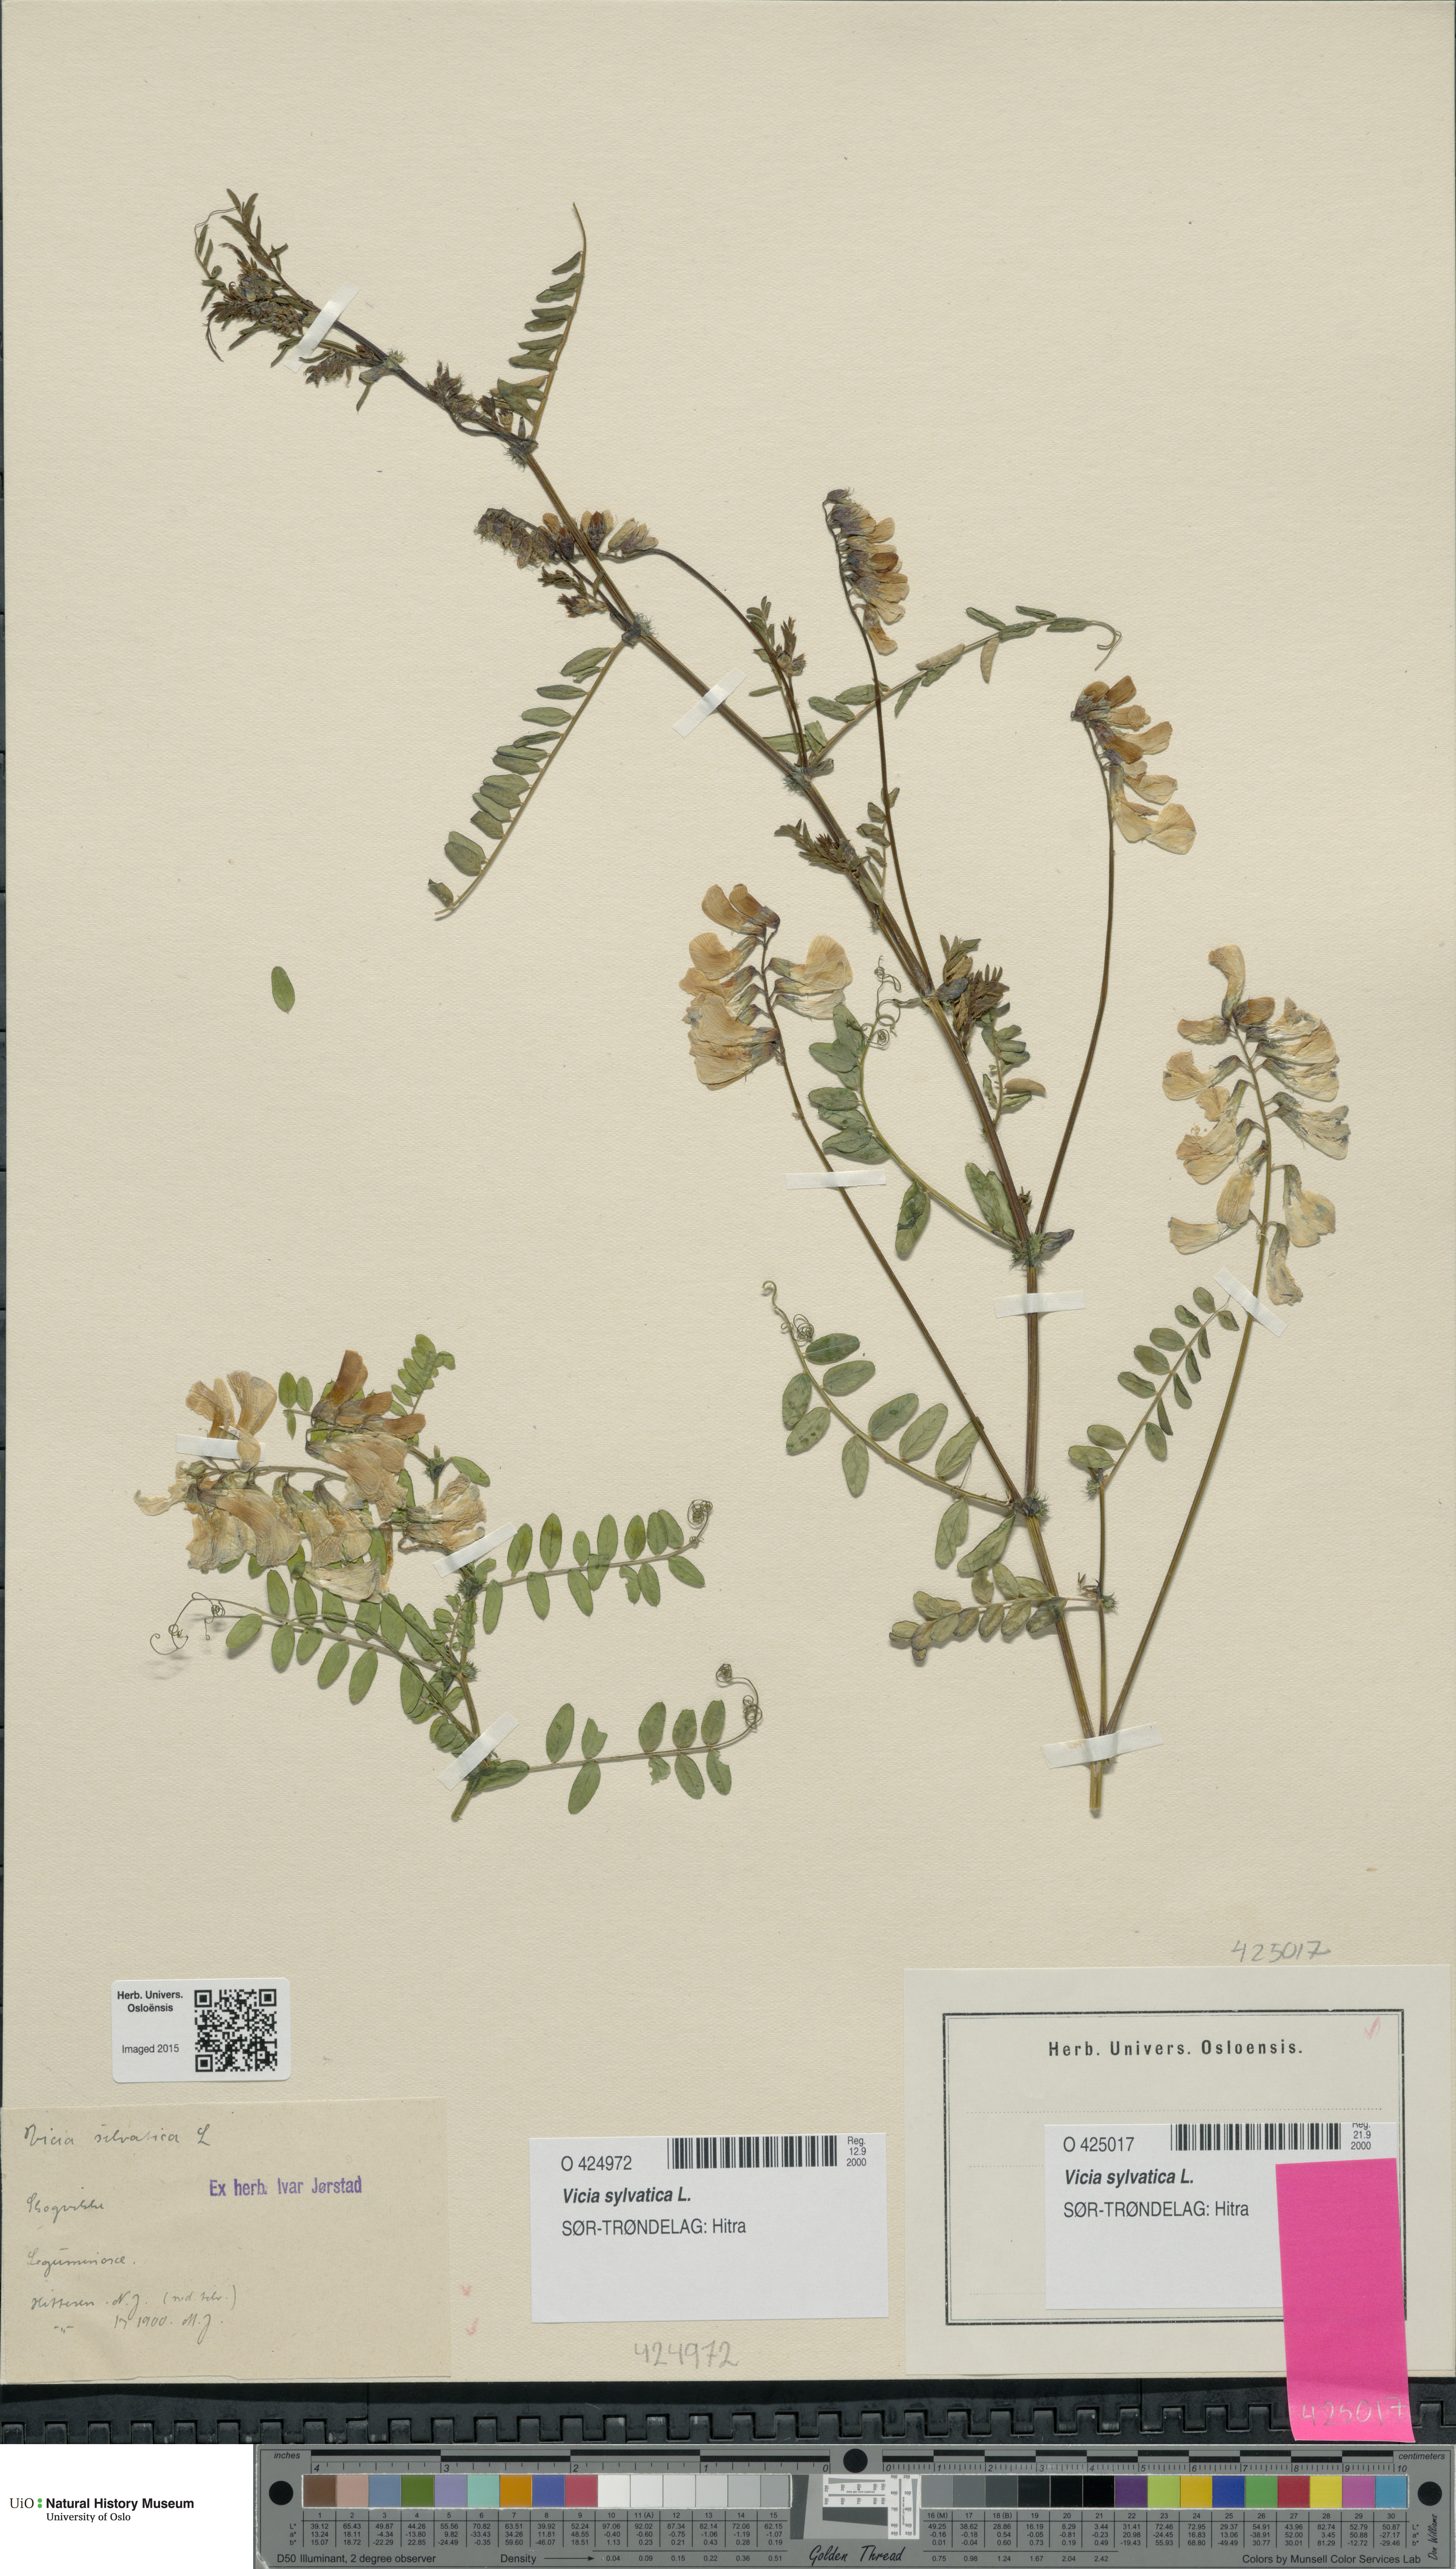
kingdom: Plantae
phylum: Tracheophyta
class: Magnoliopsida
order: Fabales
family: Fabaceae
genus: Vicia
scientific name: Vicia sylvatica
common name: Wood vetch
